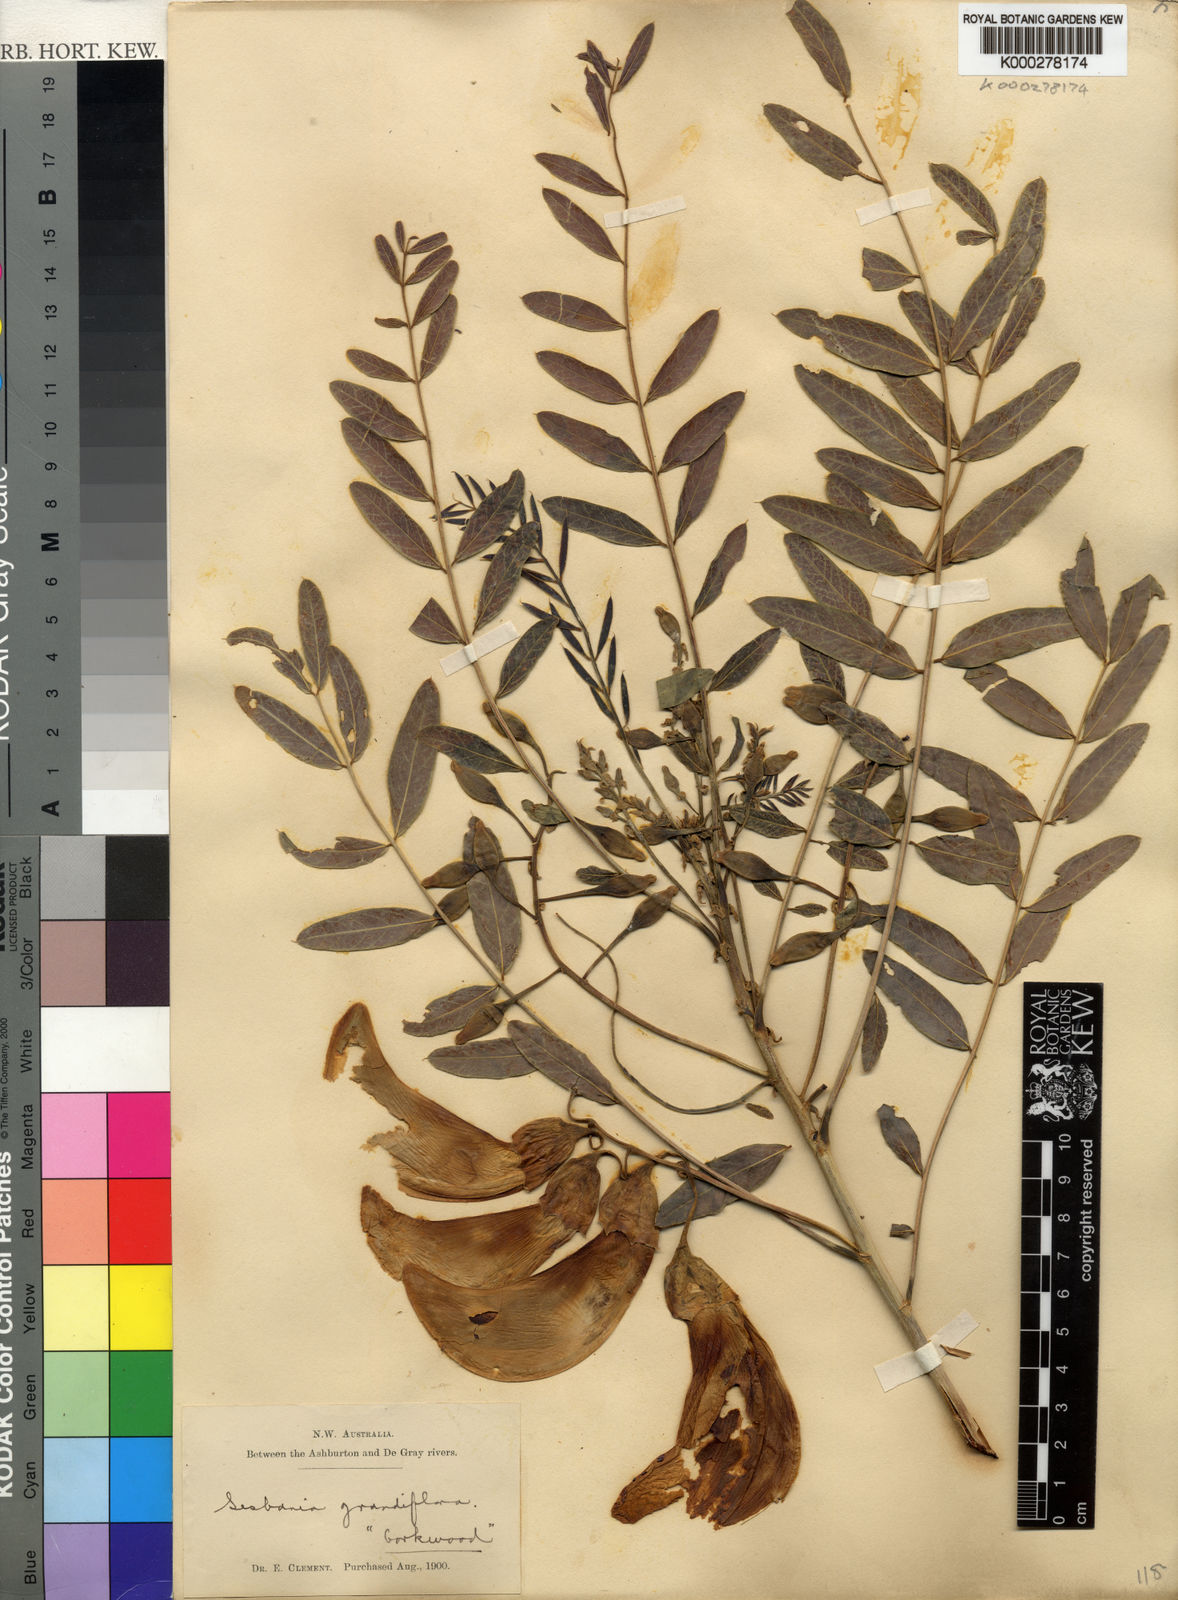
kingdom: Plantae
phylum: Tracheophyta
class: Magnoliopsida
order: Fabales
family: Fabaceae
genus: Sesbania
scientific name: Sesbania
